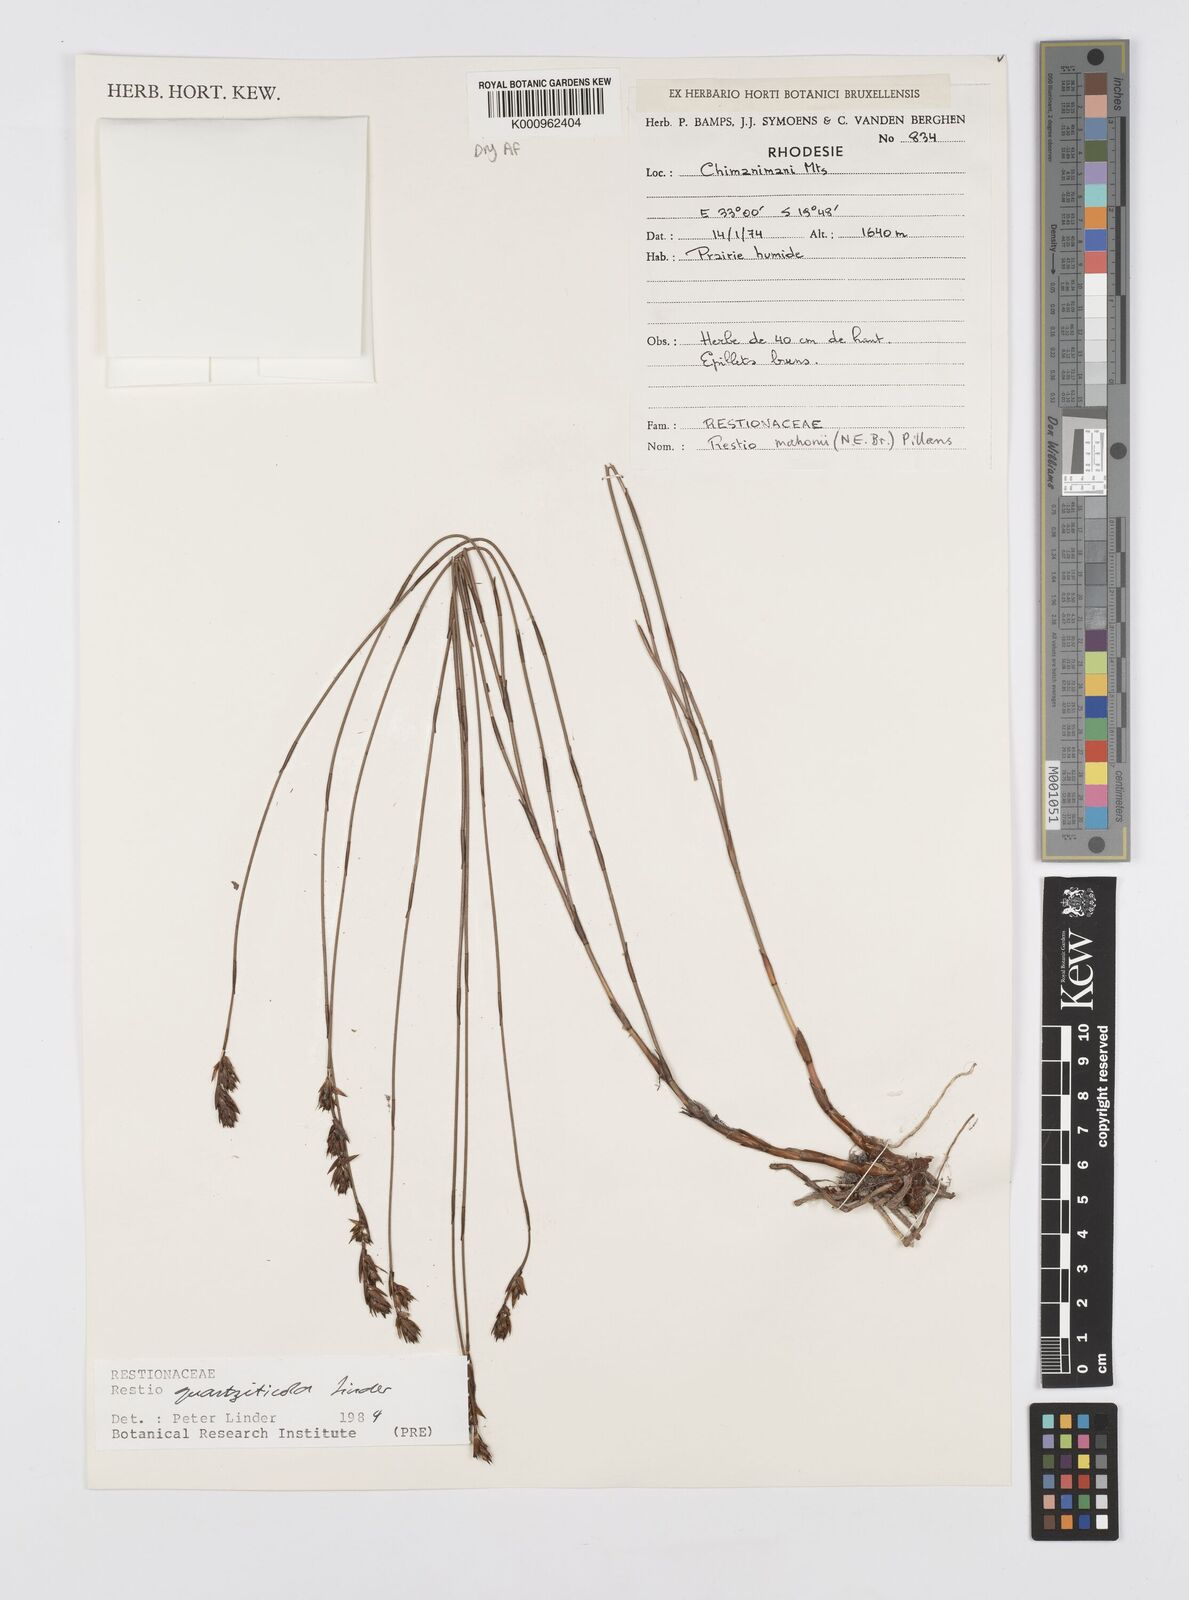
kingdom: Plantae
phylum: Tracheophyta
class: Liliopsida
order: Poales
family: Restionaceae
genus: Platycaulos
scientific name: Platycaulos quartziticola
